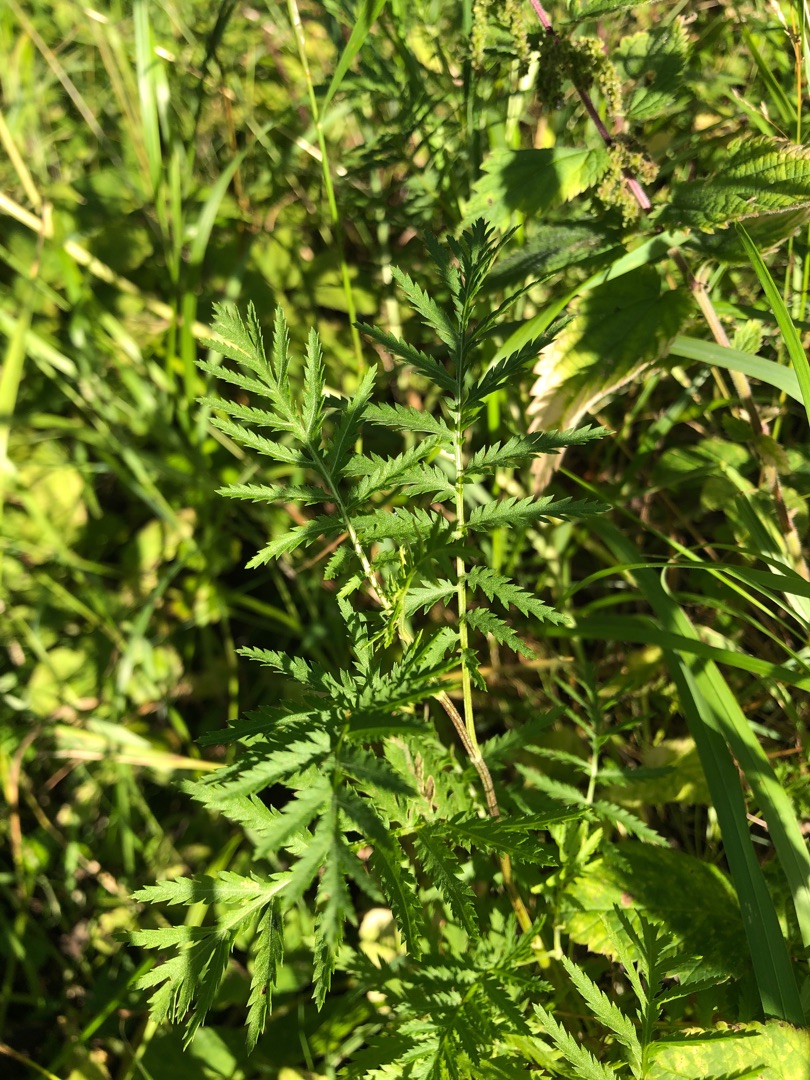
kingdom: Plantae
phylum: Tracheophyta
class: Magnoliopsida
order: Asterales
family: Asteraceae
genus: Tanacetum
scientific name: Tanacetum vulgare
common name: Rejnfan
